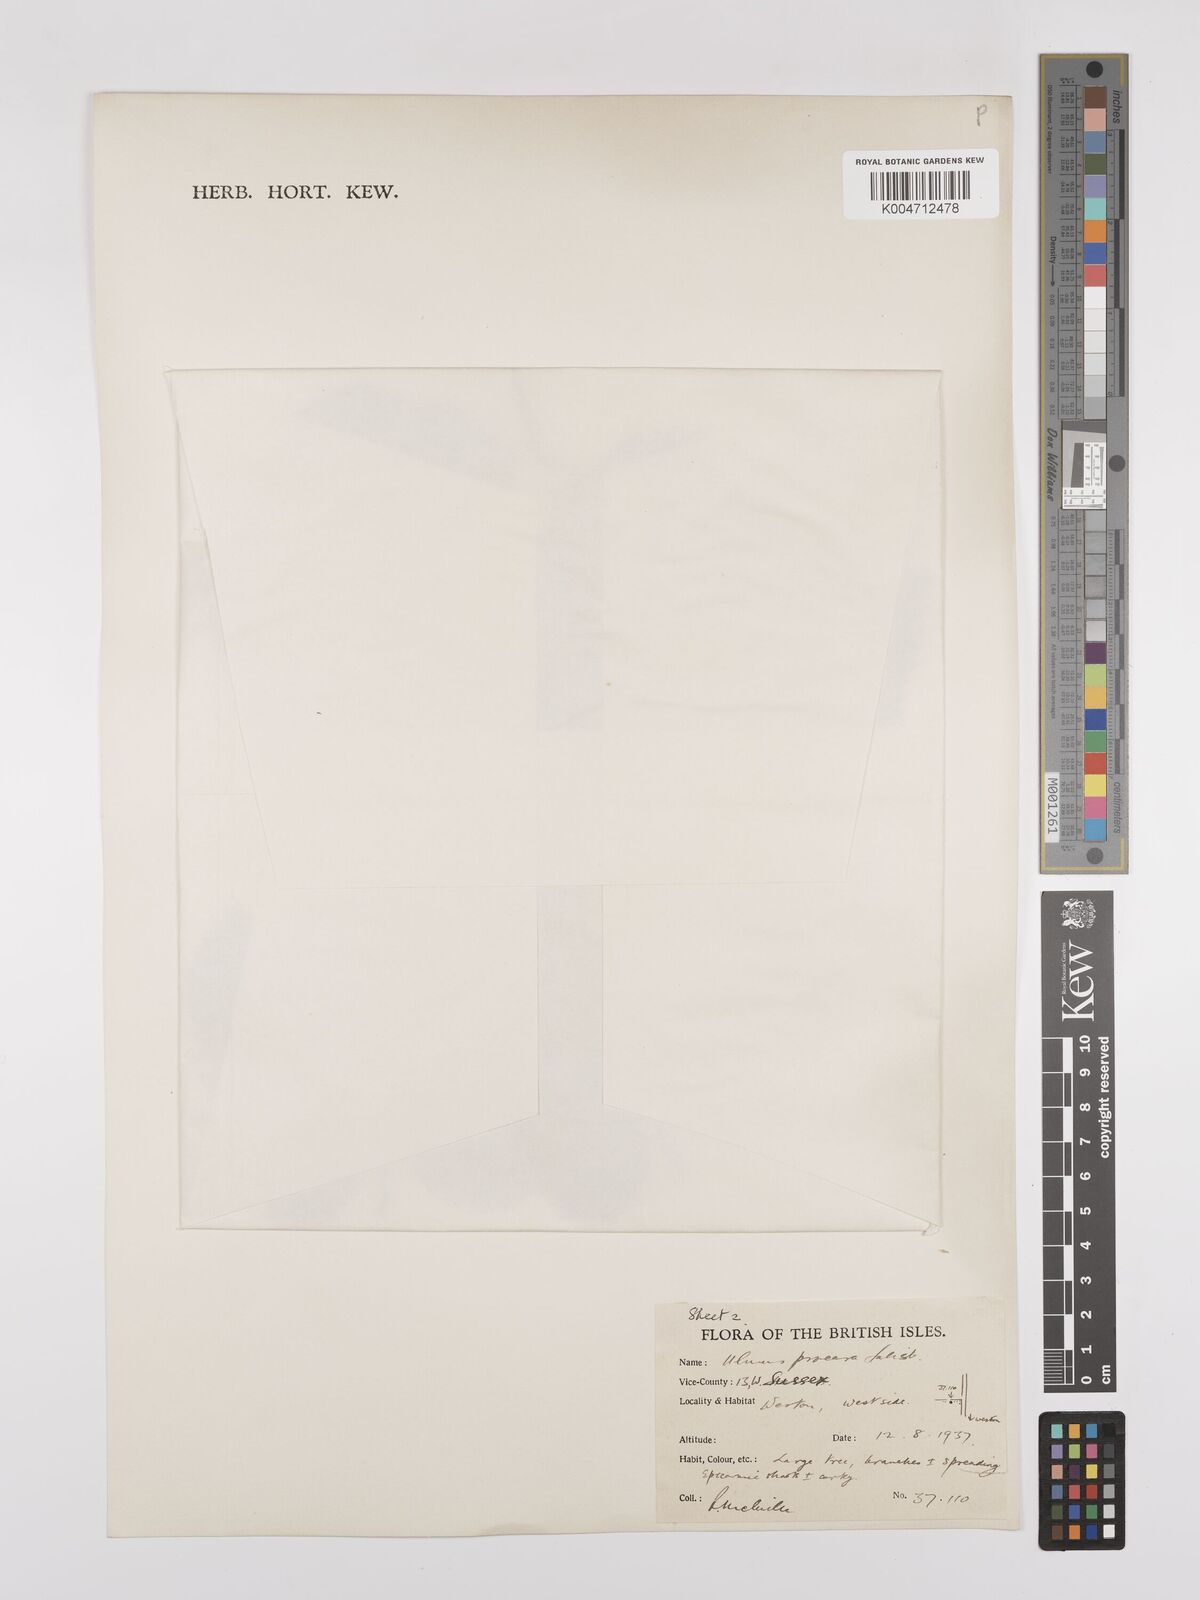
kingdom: Plantae
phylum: Tracheophyta
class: Magnoliopsida
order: Rosales
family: Ulmaceae
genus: Ulmus
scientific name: Ulmus minor
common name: Small-leaved elm
